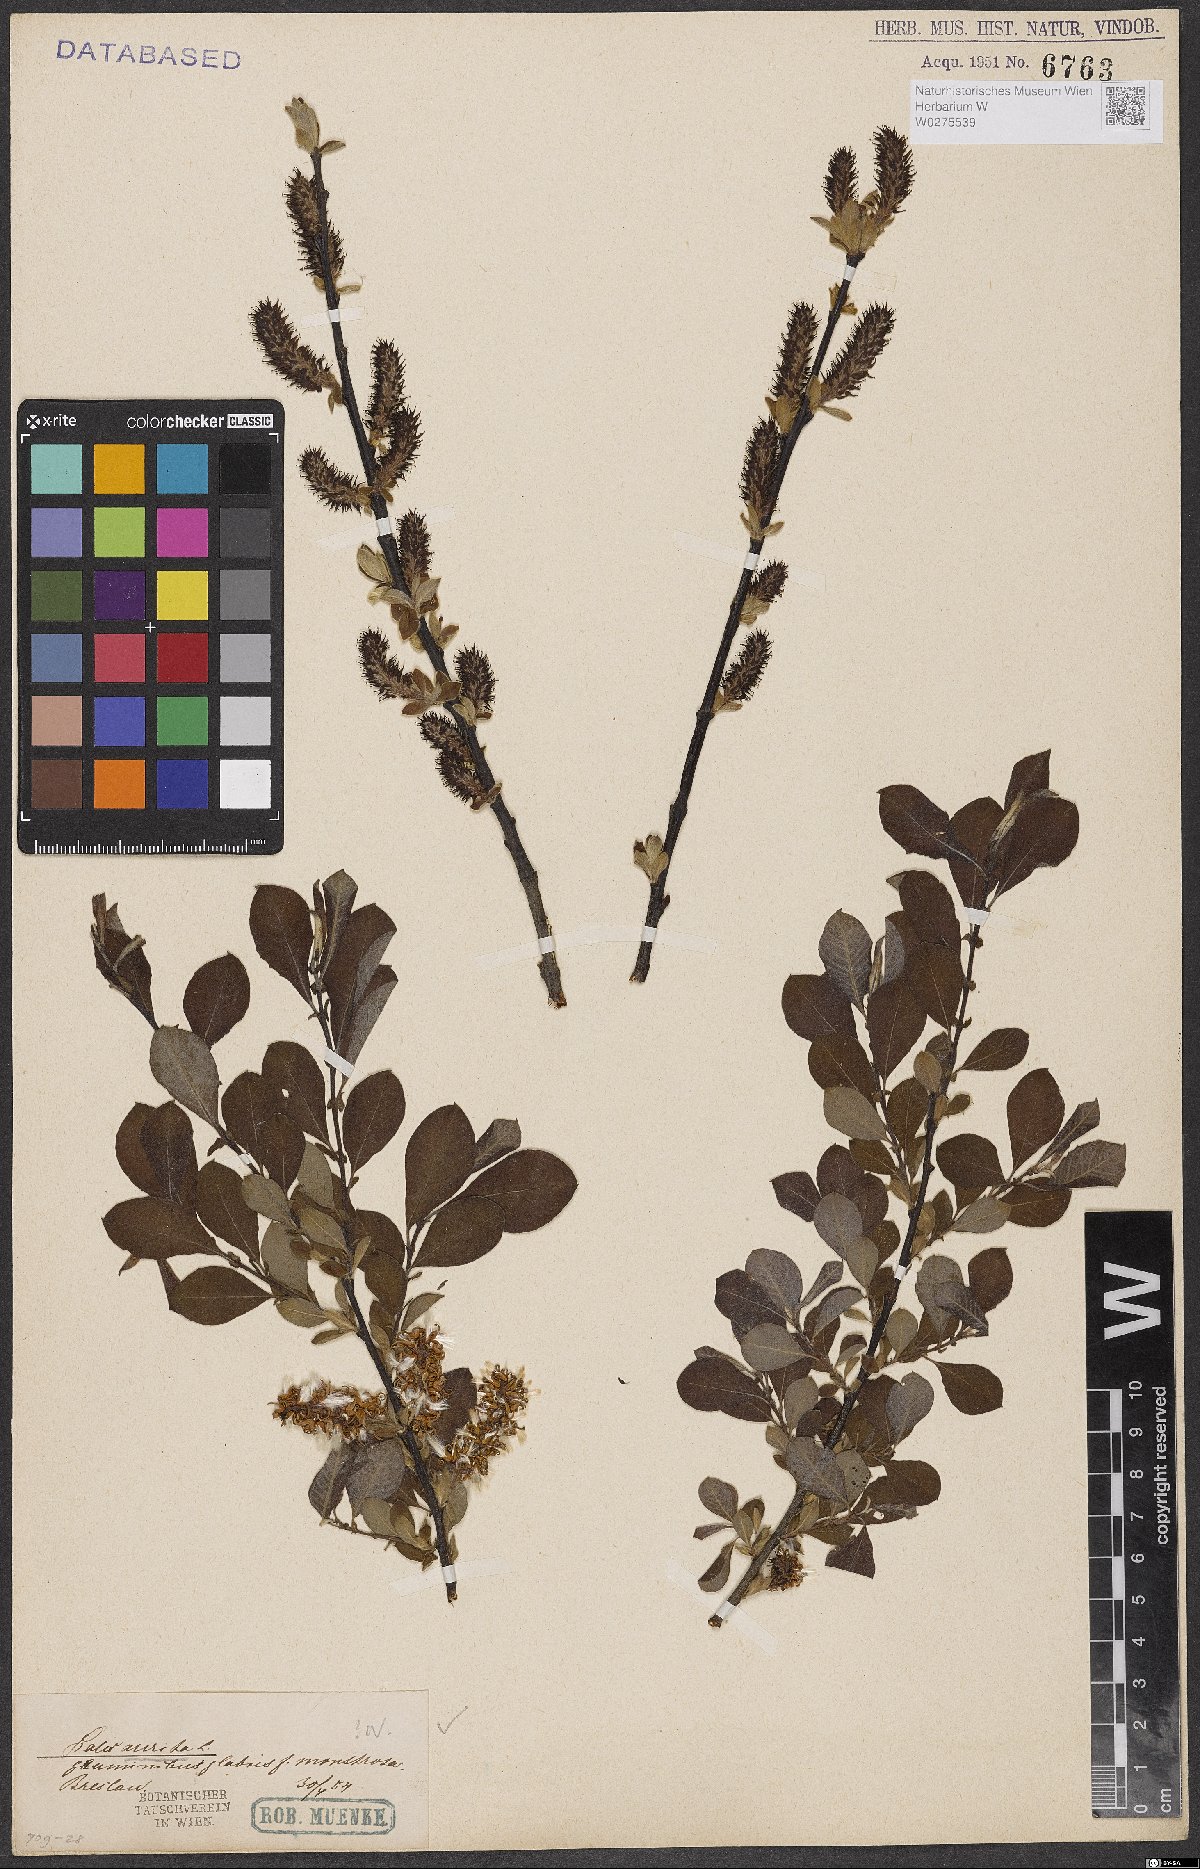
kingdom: Plantae
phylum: Tracheophyta
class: Magnoliopsida
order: Malpighiales
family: Salicaceae
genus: Salix
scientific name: Salix aurita
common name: Eared willow
